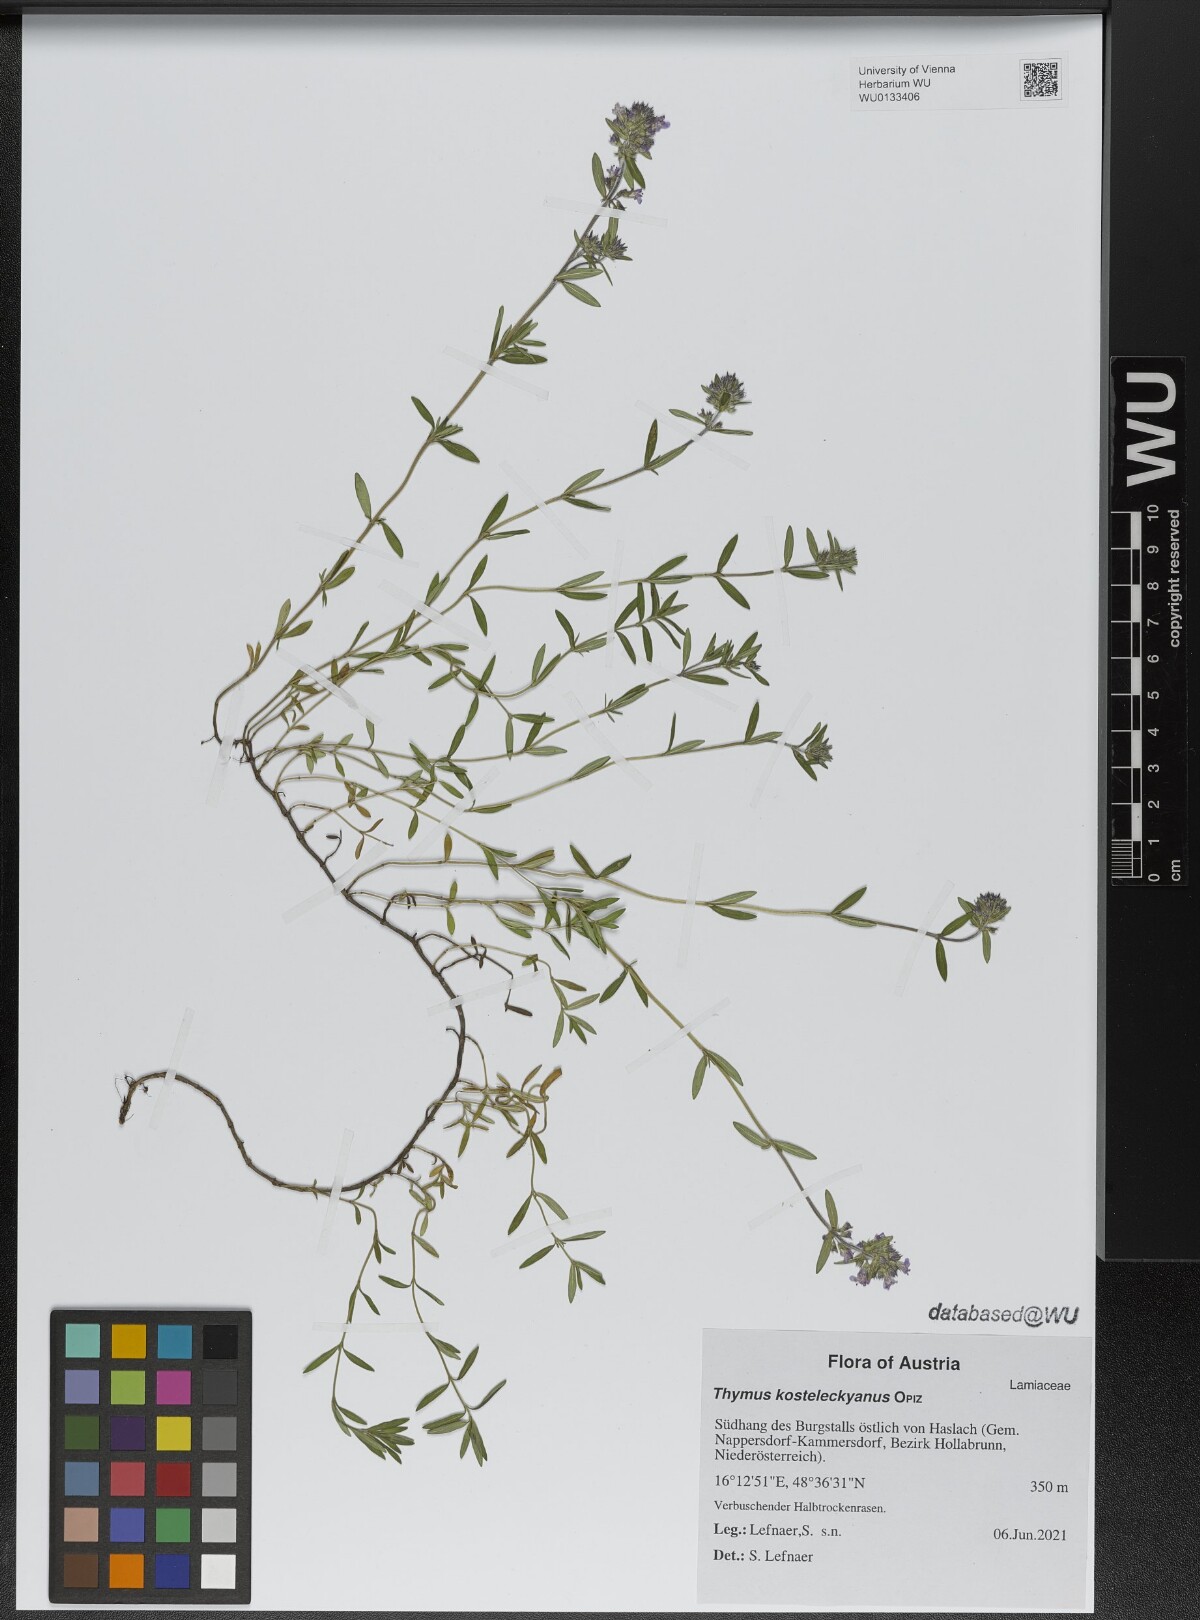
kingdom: Plantae
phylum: Tracheophyta
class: Magnoliopsida
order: Lamiales
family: Lamiaceae
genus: Thymus
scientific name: Thymus kosteleckyanus
